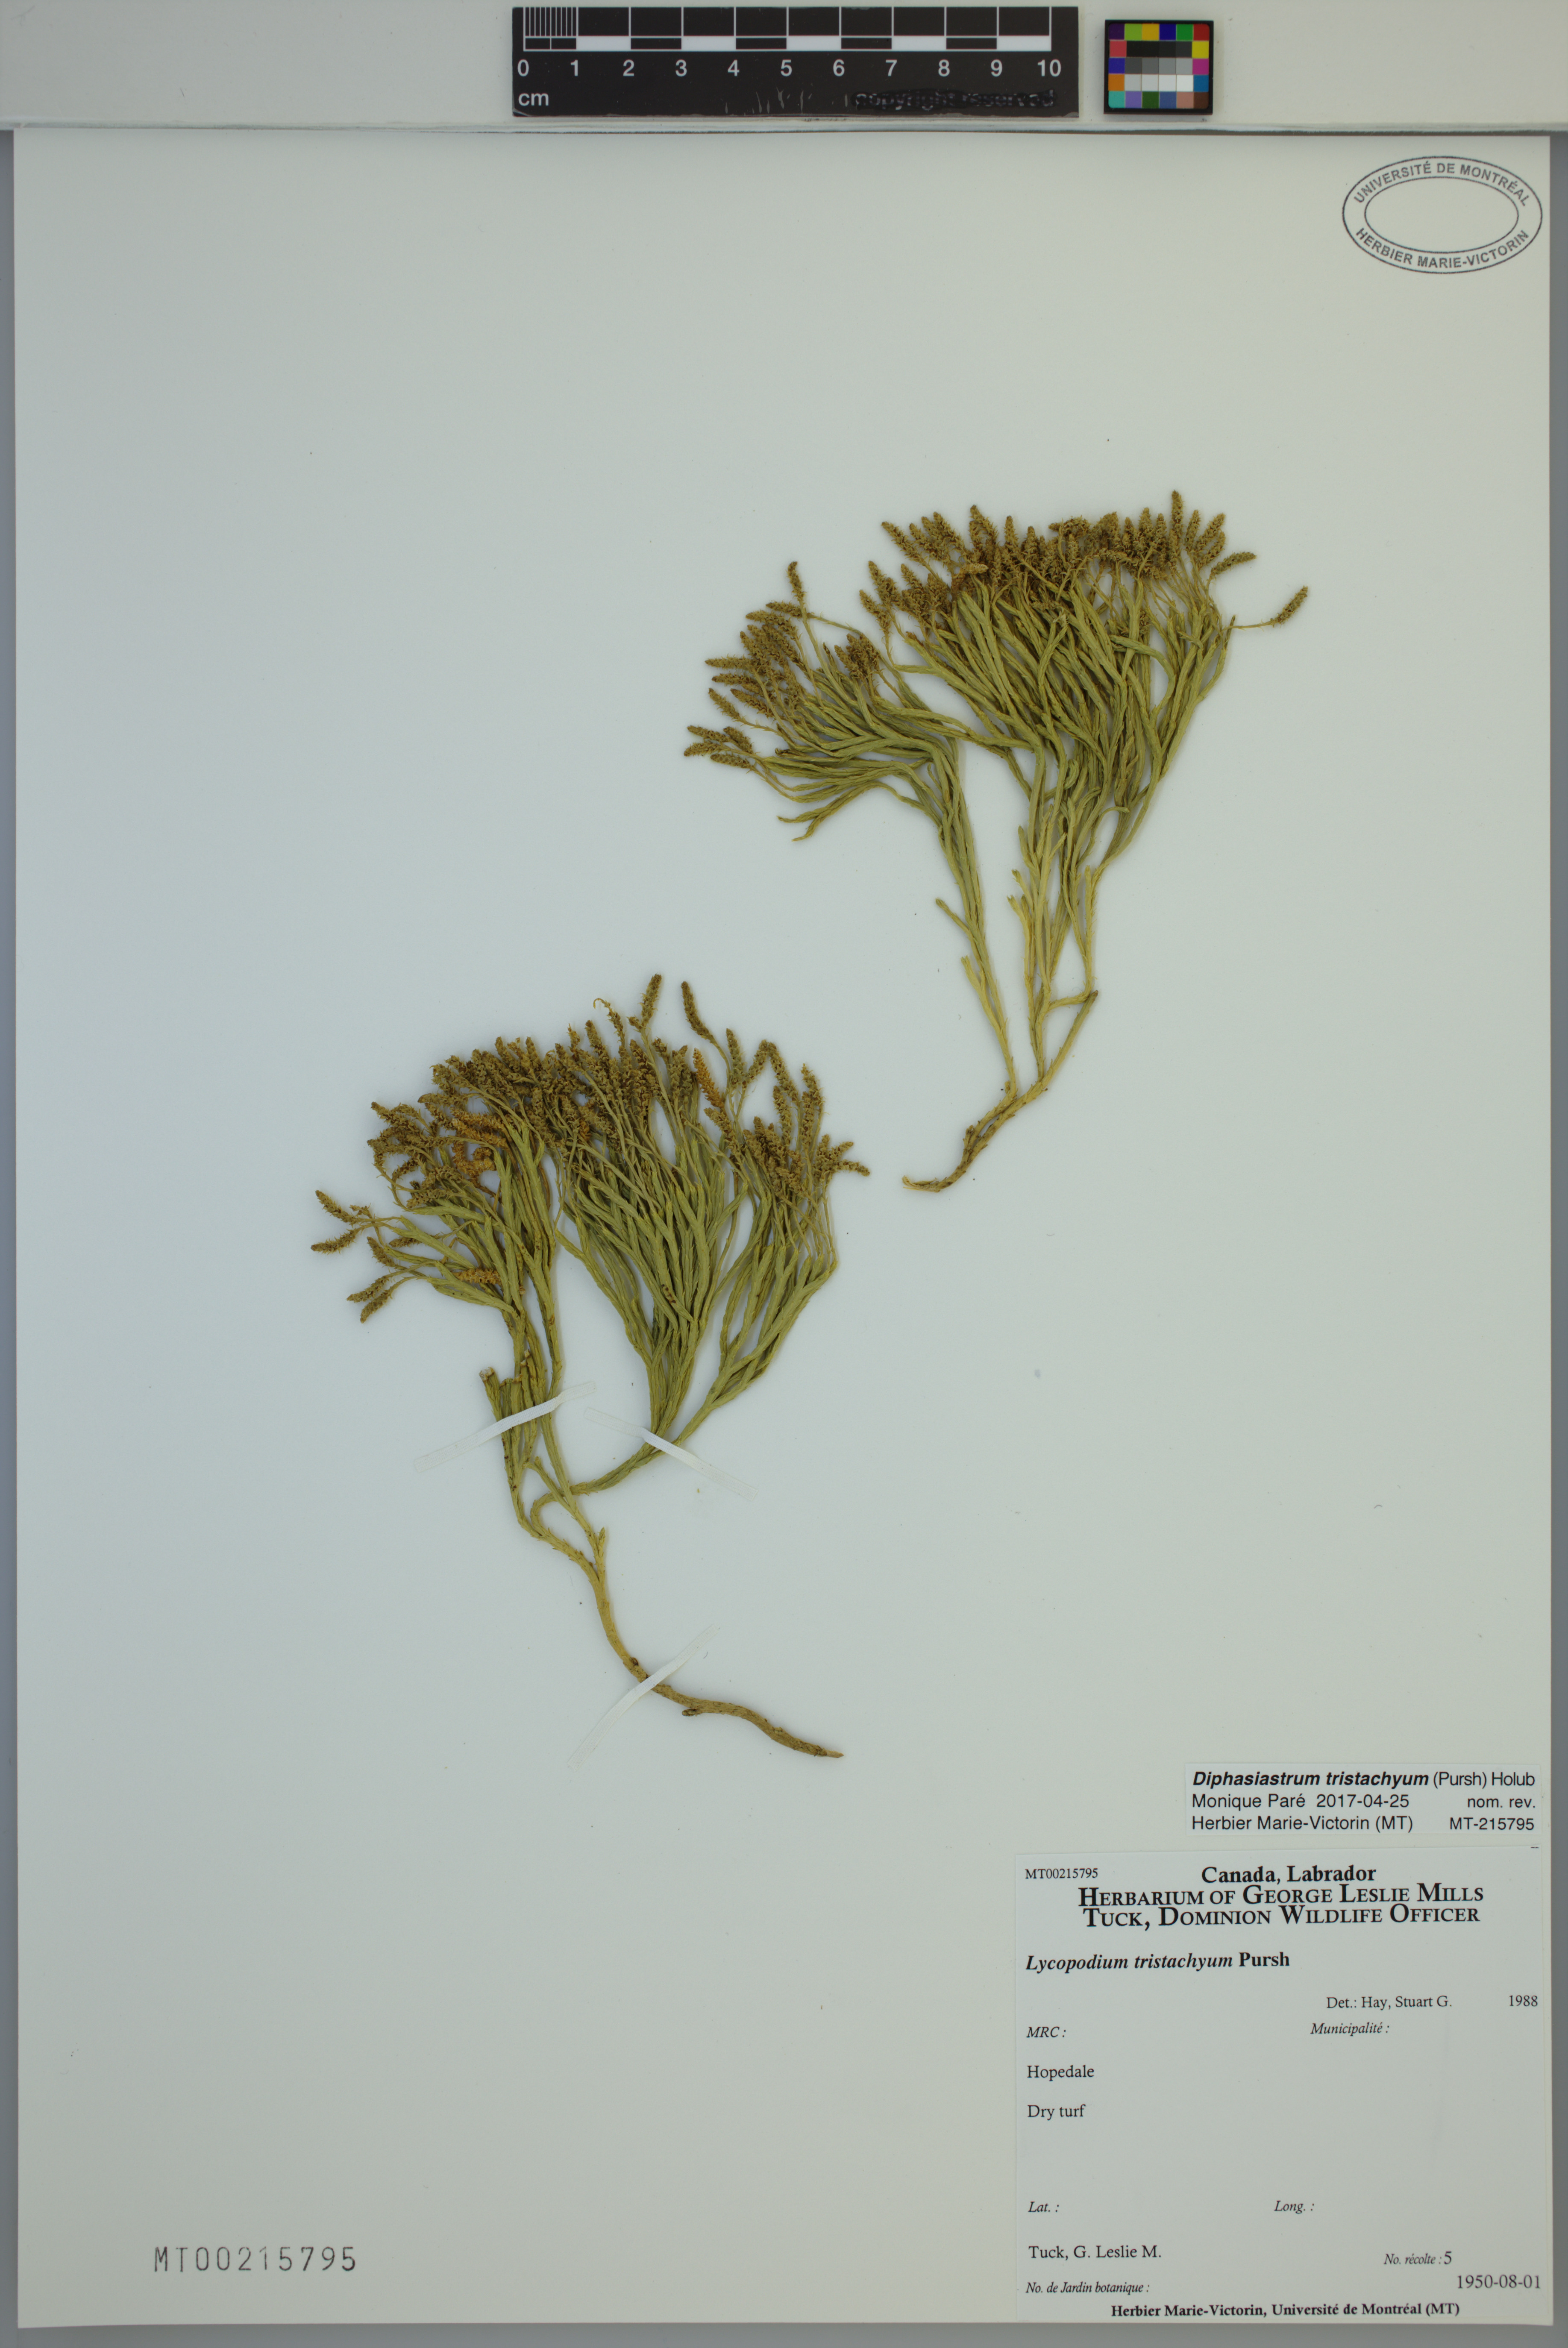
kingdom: Plantae
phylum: Tracheophyta
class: Lycopodiopsida
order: Lycopodiales
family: Lycopodiaceae
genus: Diphasiastrum
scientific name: Diphasiastrum tristachyum
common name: Blue ground-cedar
